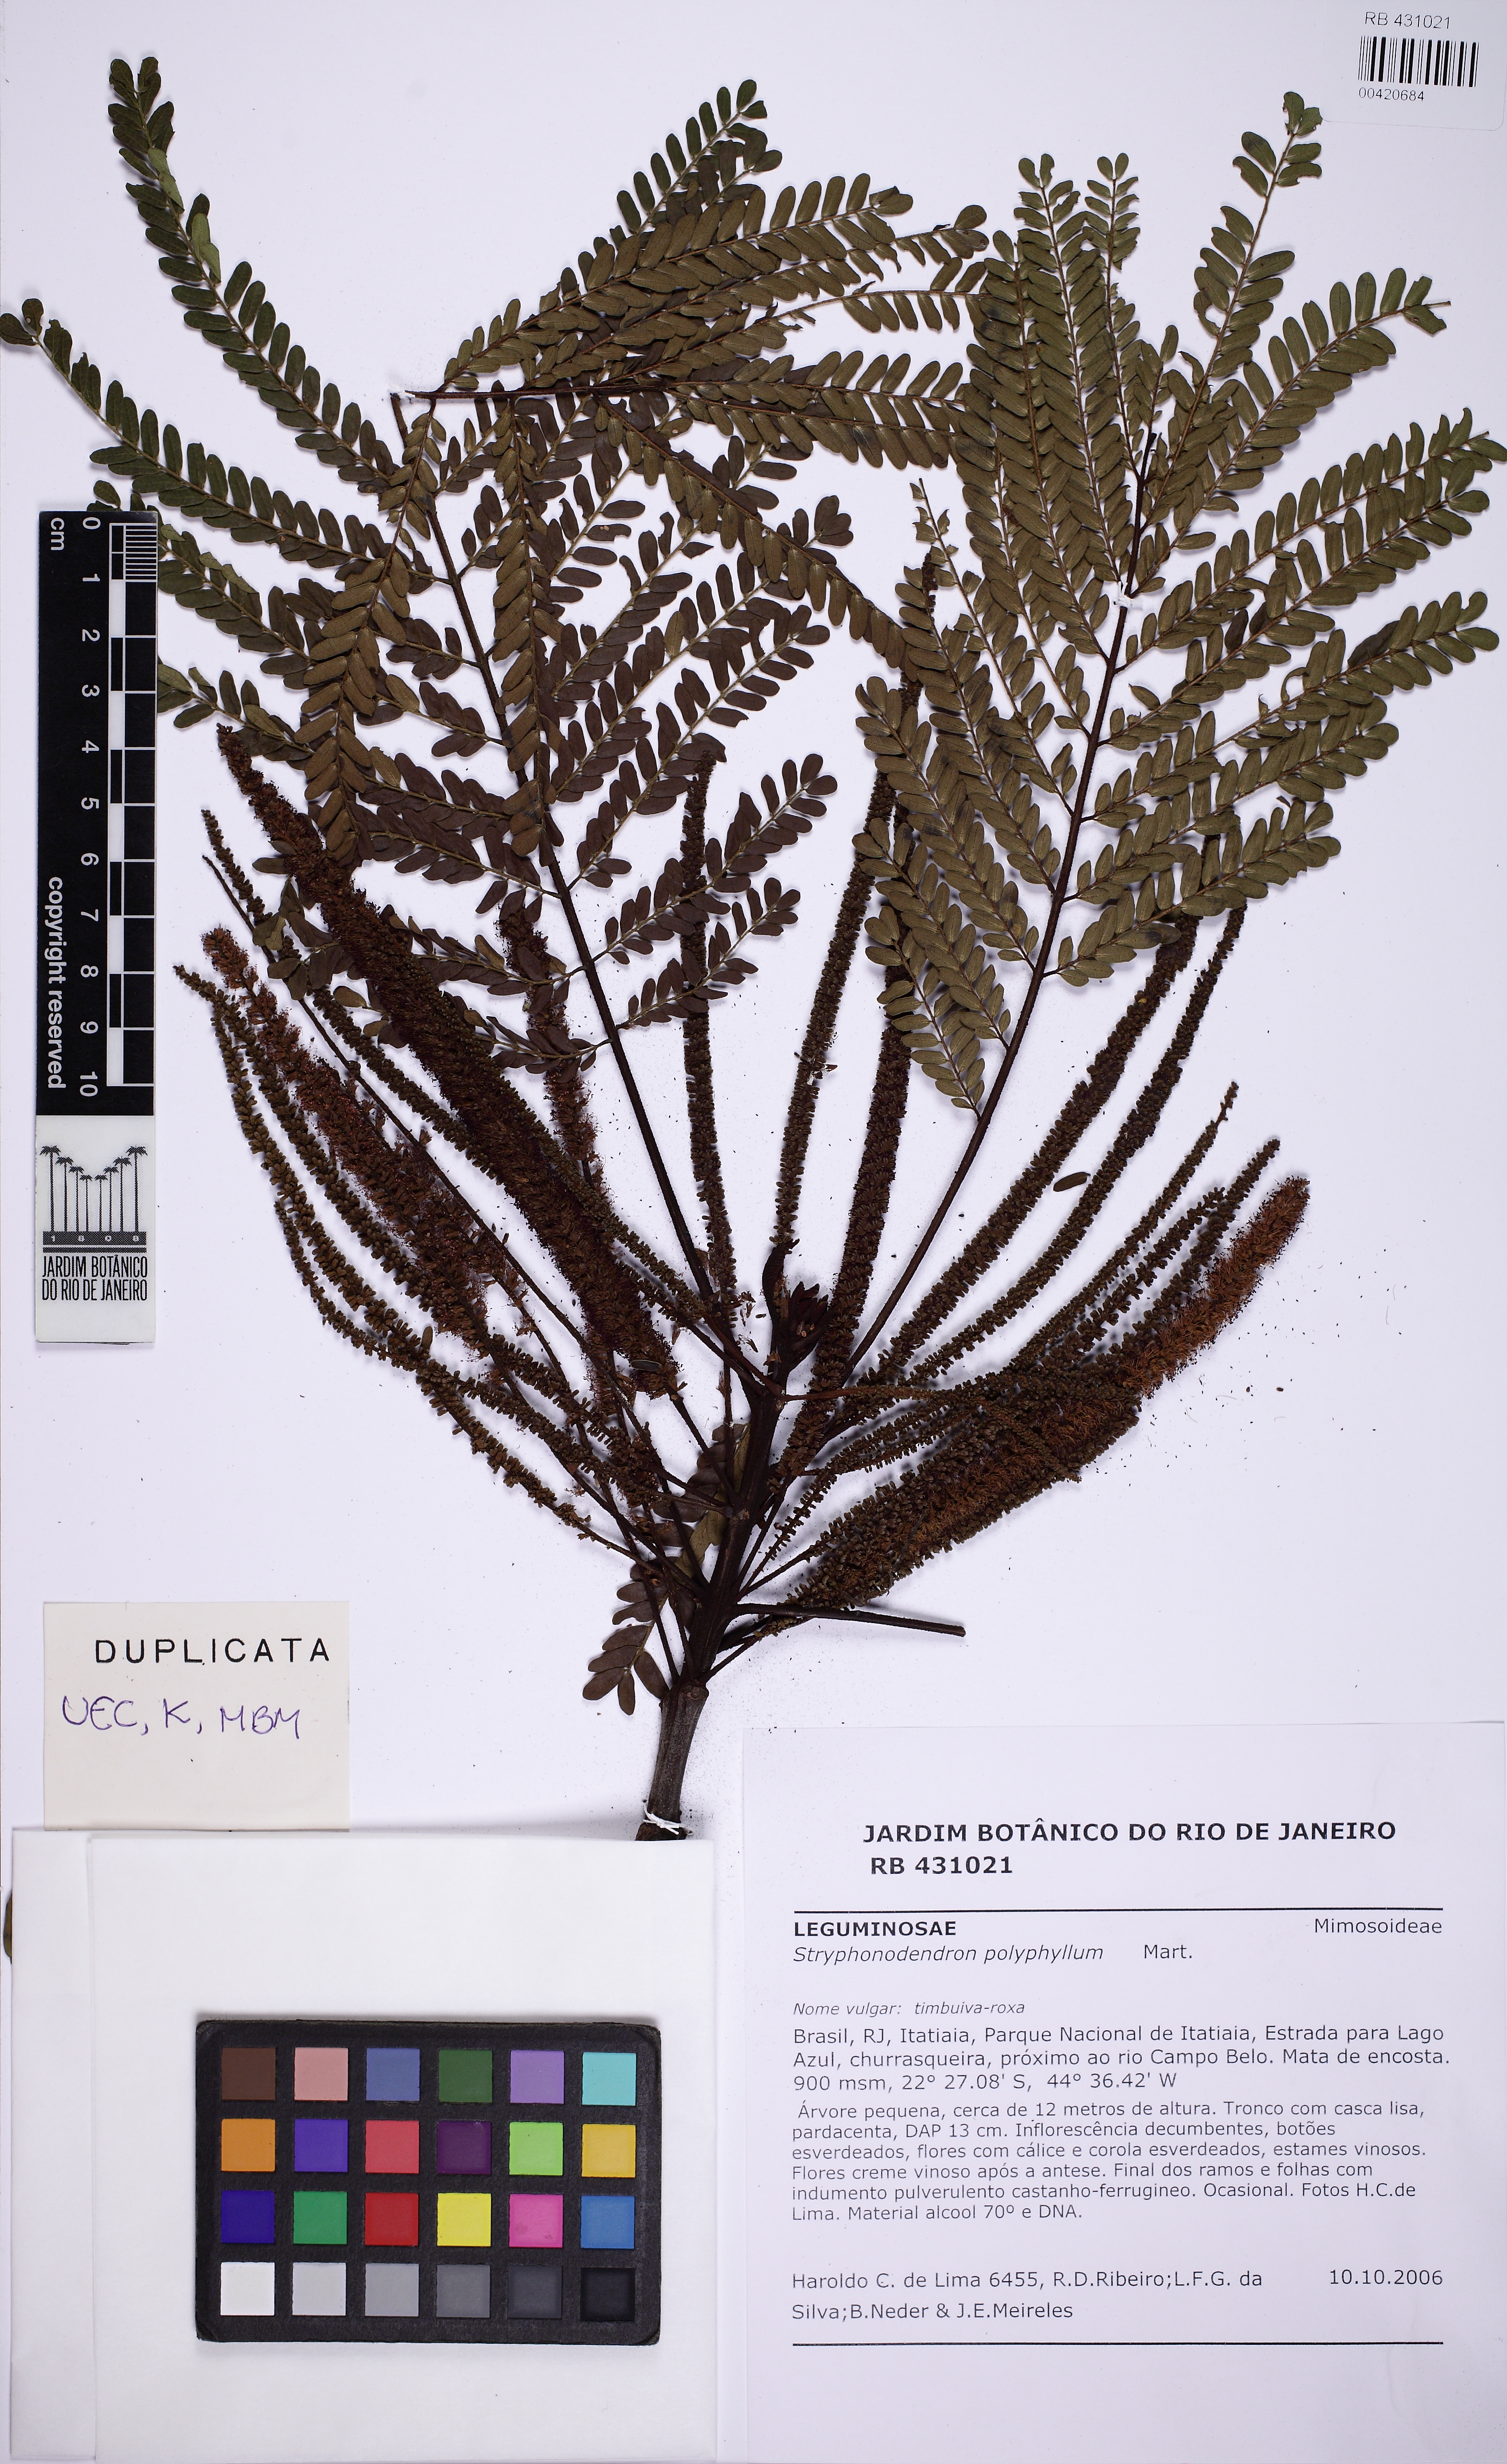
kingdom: Plantae
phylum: Tracheophyta
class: Magnoliopsida
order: Fabales
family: Fabaceae
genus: Stryphnodendron
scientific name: Stryphnodendron polyphyllum
